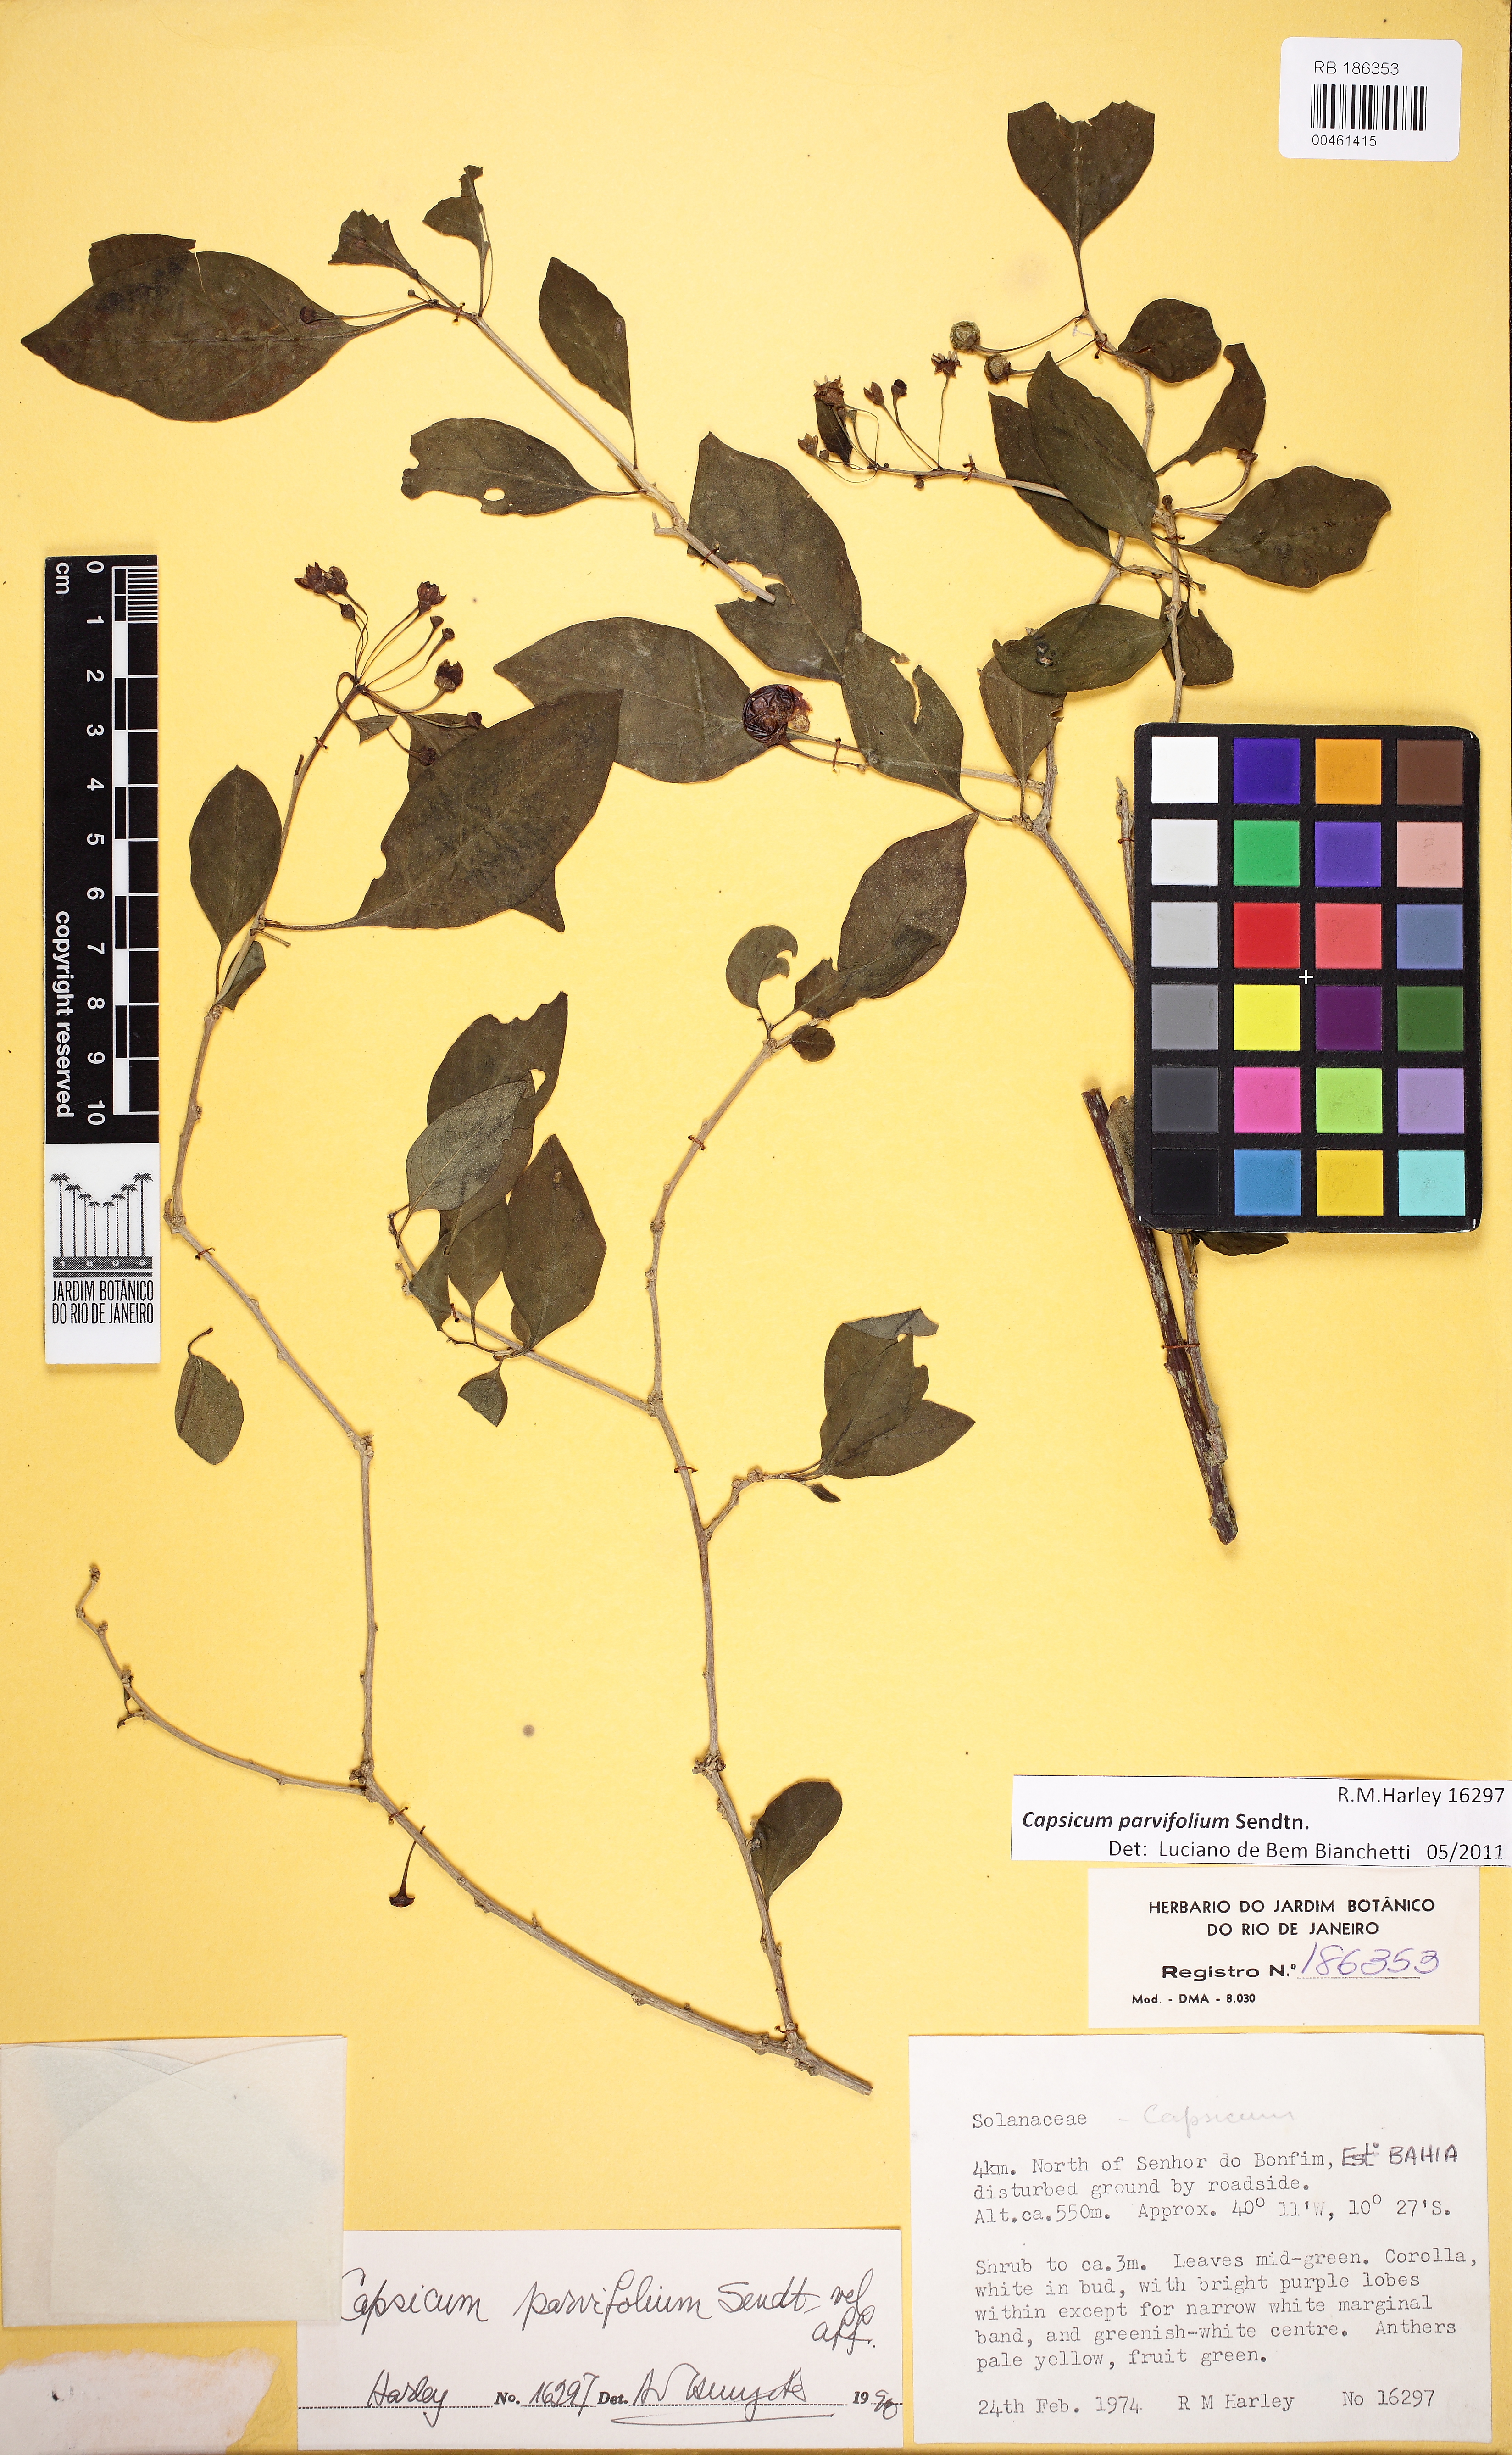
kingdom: Plantae
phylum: Tracheophyta
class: Magnoliopsida
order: Solanales
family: Solanaceae
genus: Capsicum
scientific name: Capsicum caatingae
